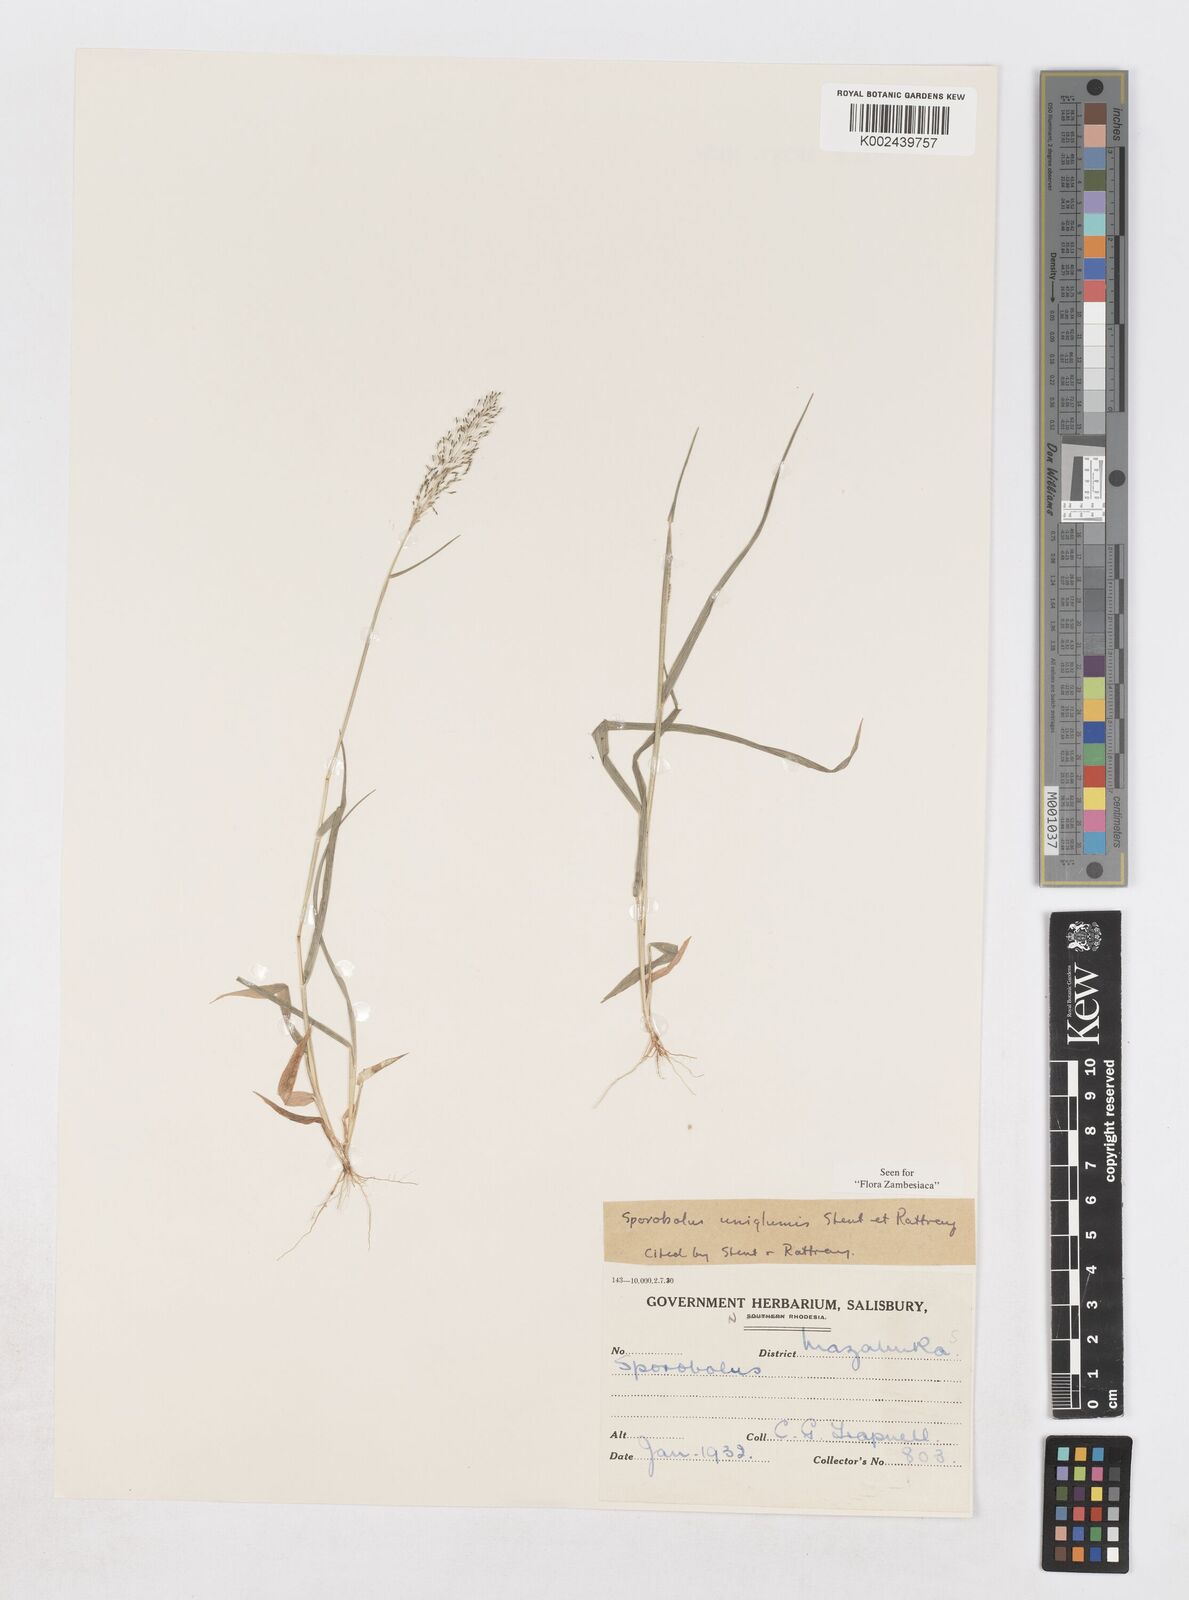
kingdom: Plantae
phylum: Tracheophyta
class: Liliopsida
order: Poales
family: Poaceae
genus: Sporobolus
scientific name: Sporobolus uniglumis
